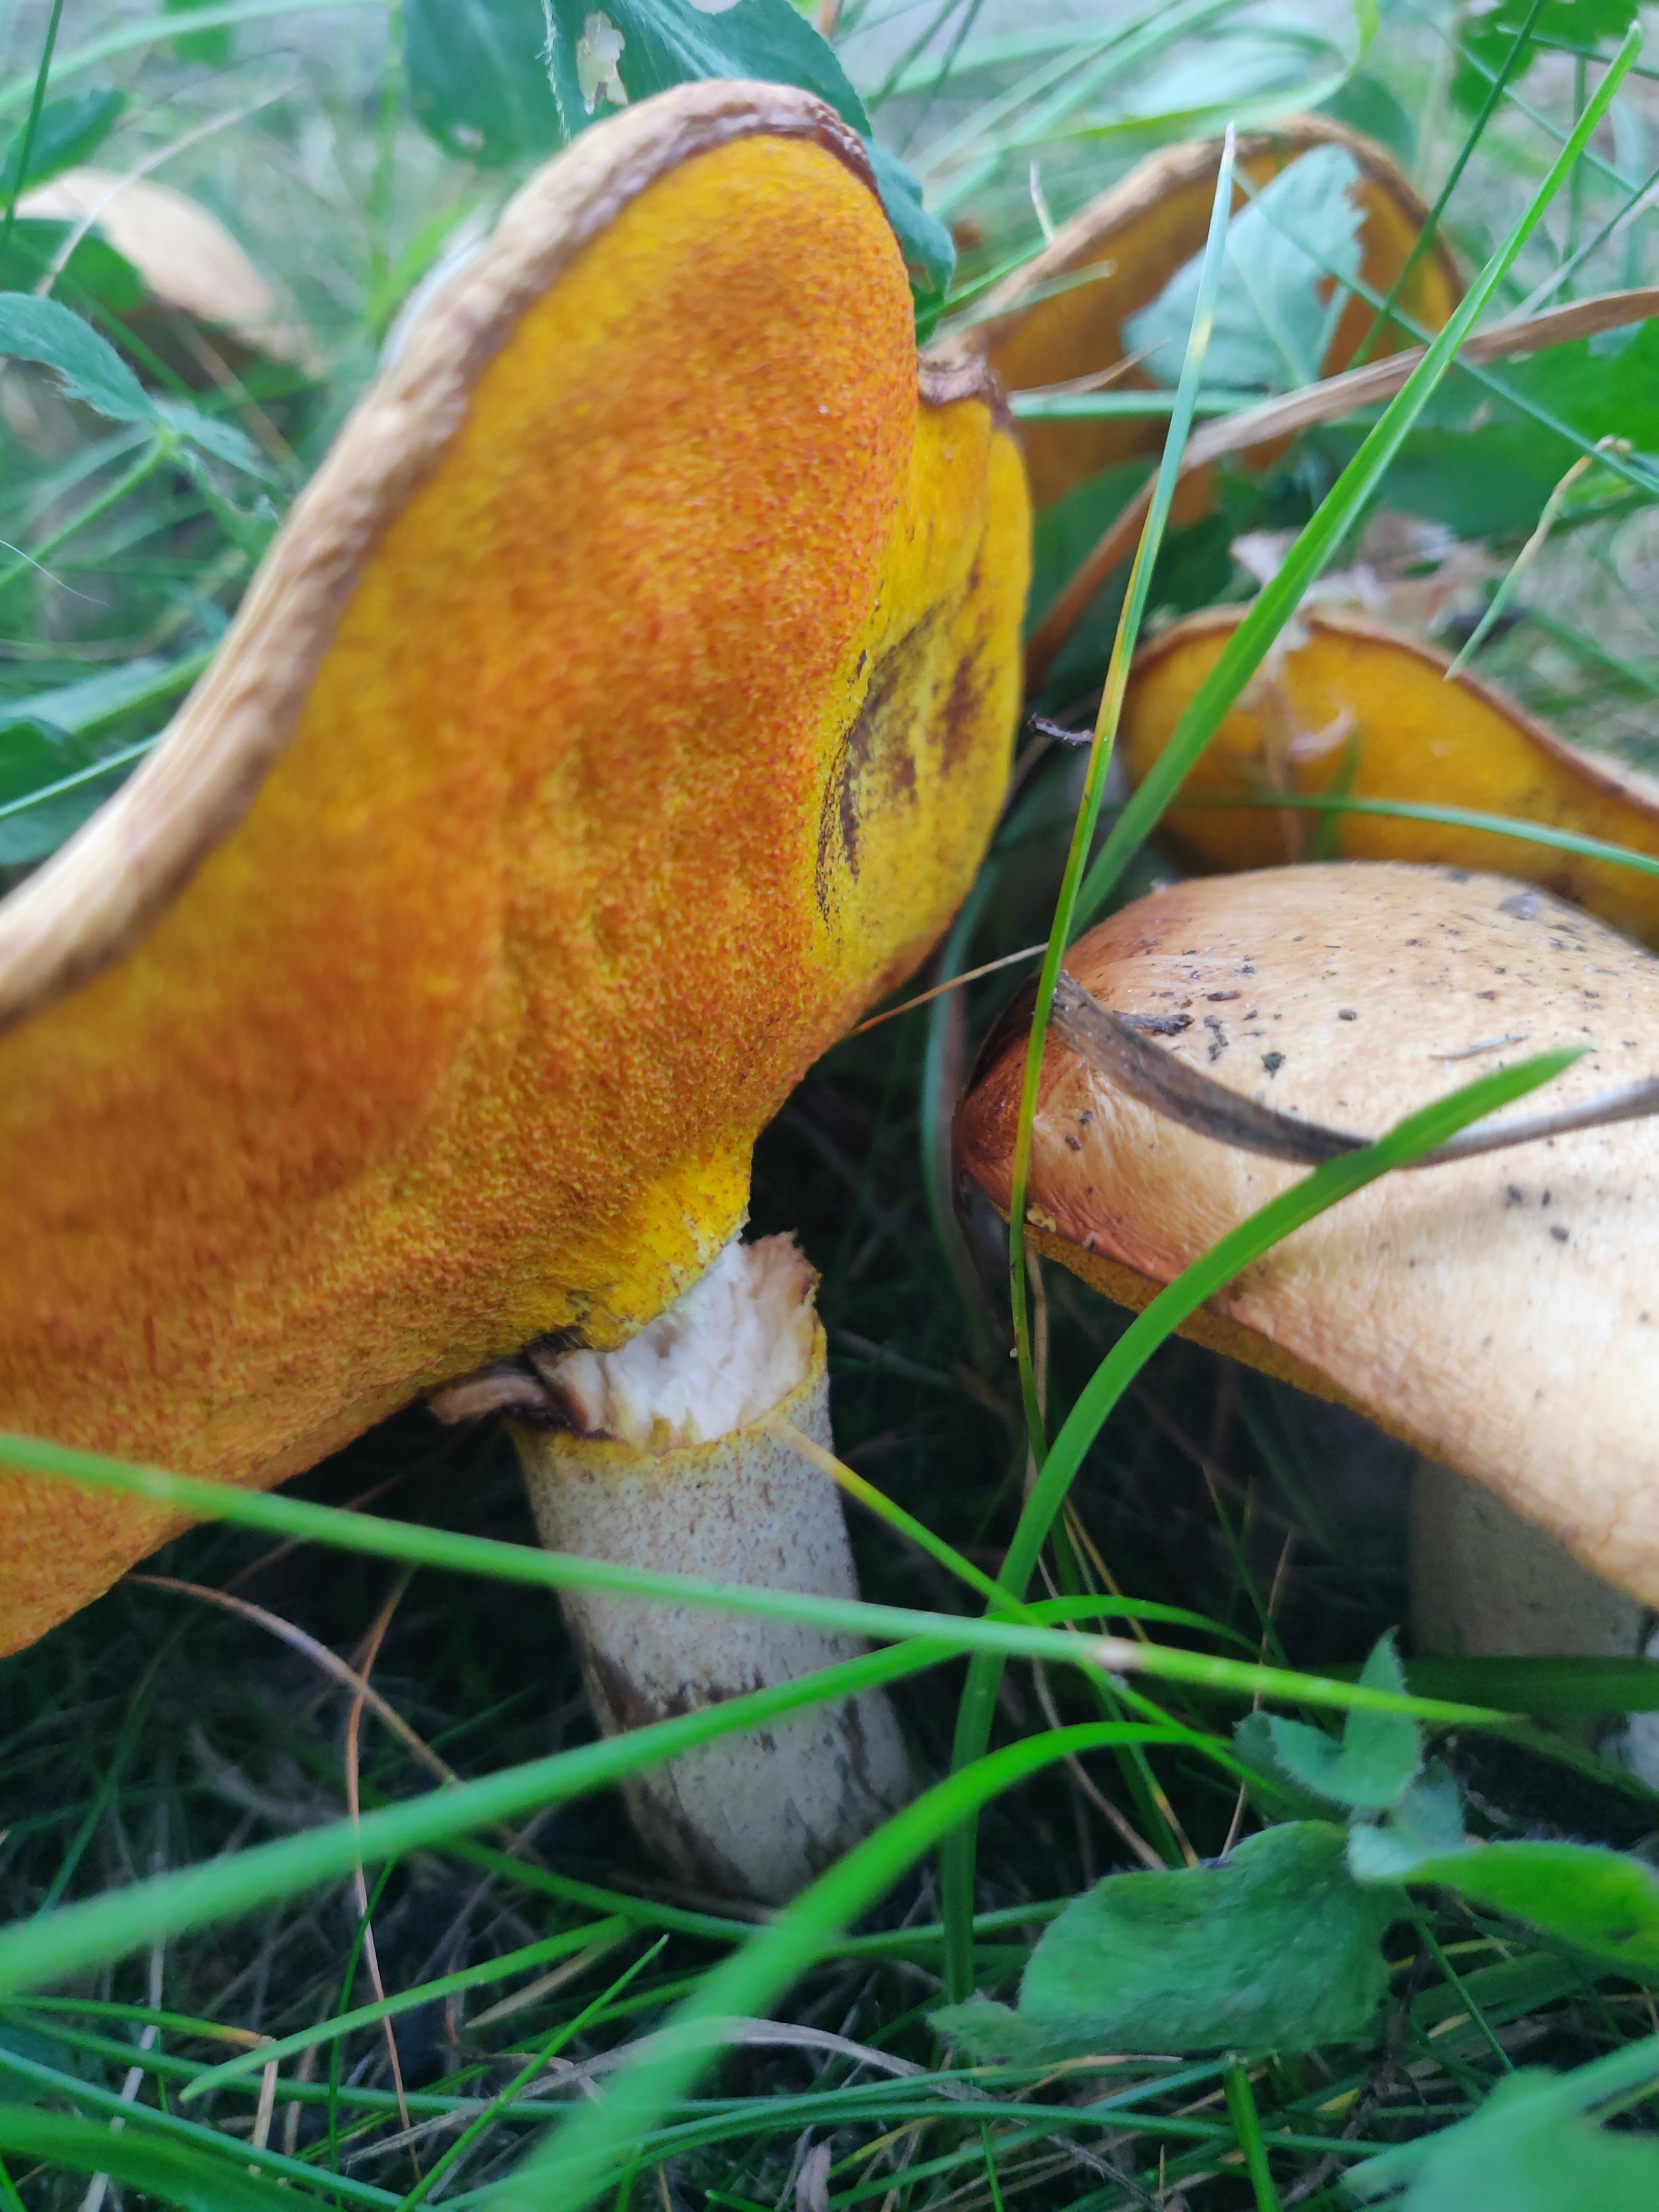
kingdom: Fungi
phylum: Basidiomycota
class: Agaricomycetes
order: Boletales
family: Suillaceae
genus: Suillus
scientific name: Suillus granulatus
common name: kornet slimrørhat
